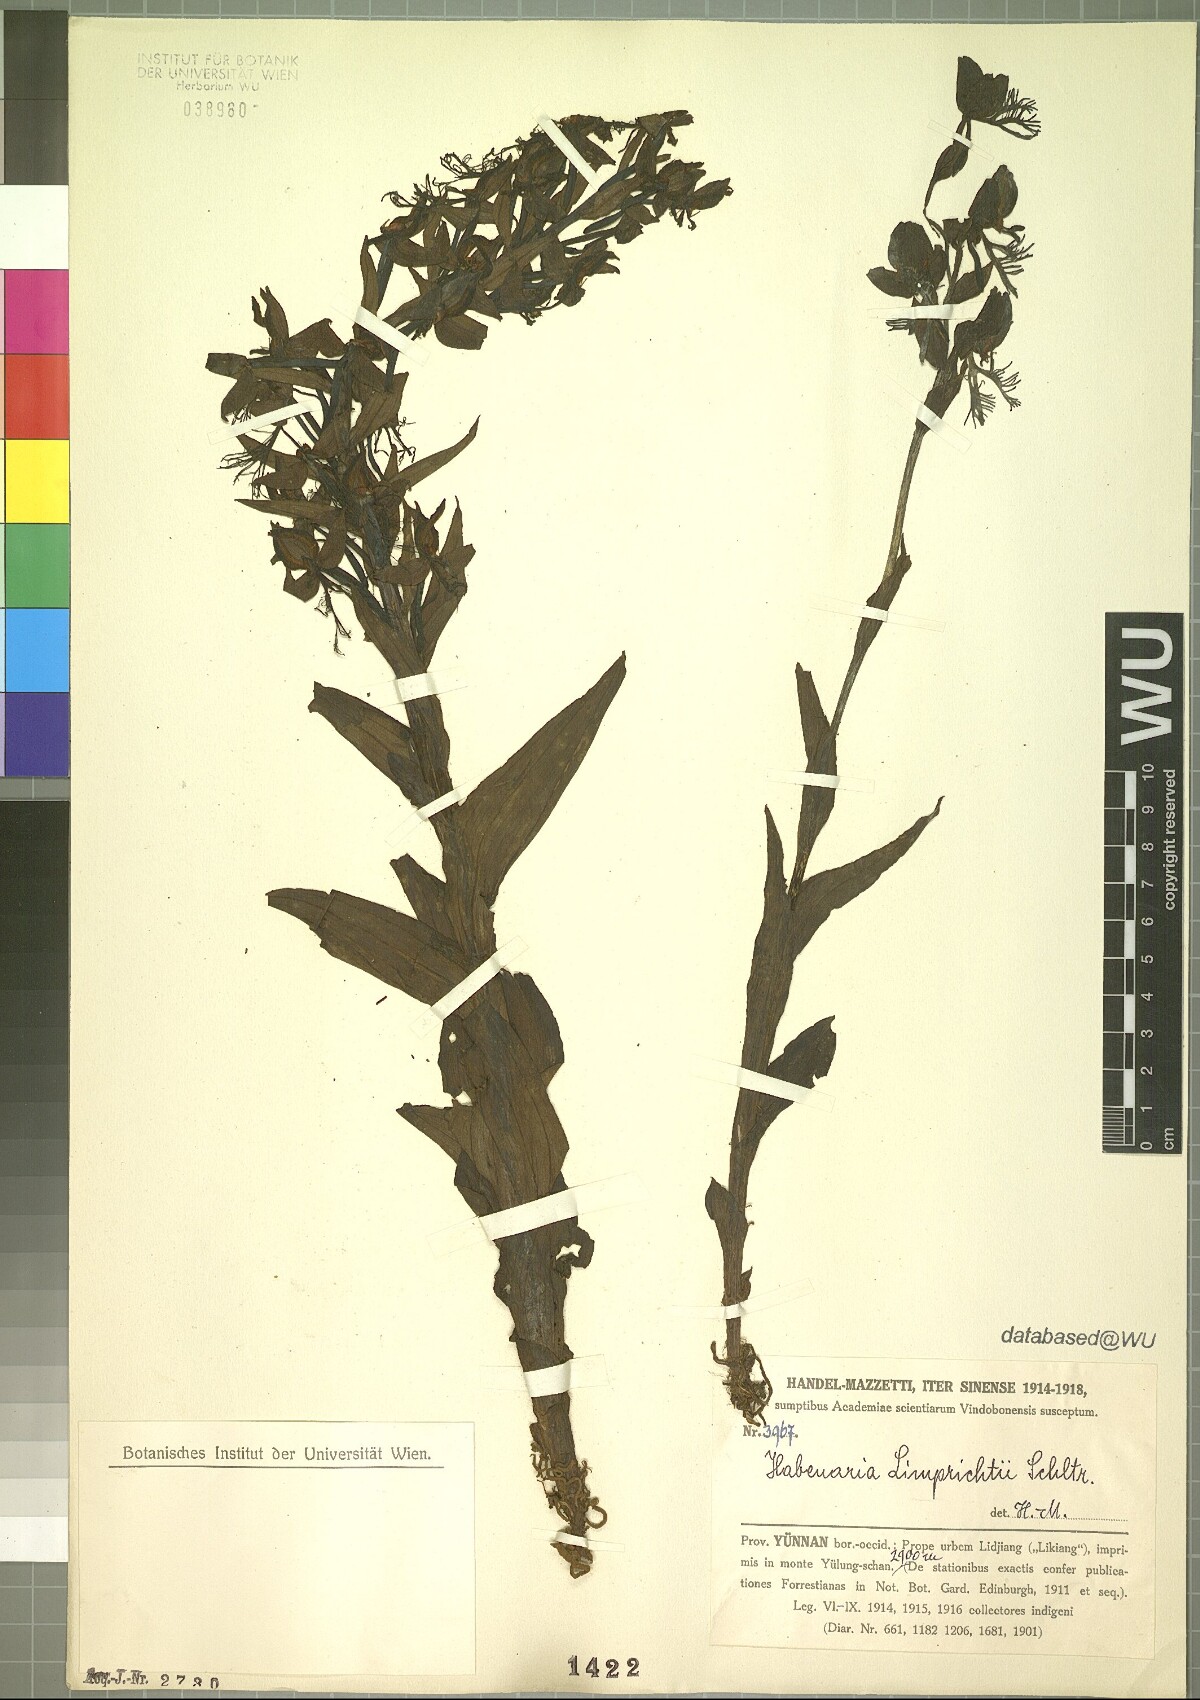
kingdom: Plantae
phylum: Tracheophyta
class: Liliopsida
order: Asparagales
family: Orchidaceae
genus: Habenaria
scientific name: Habenaria limprichtii
